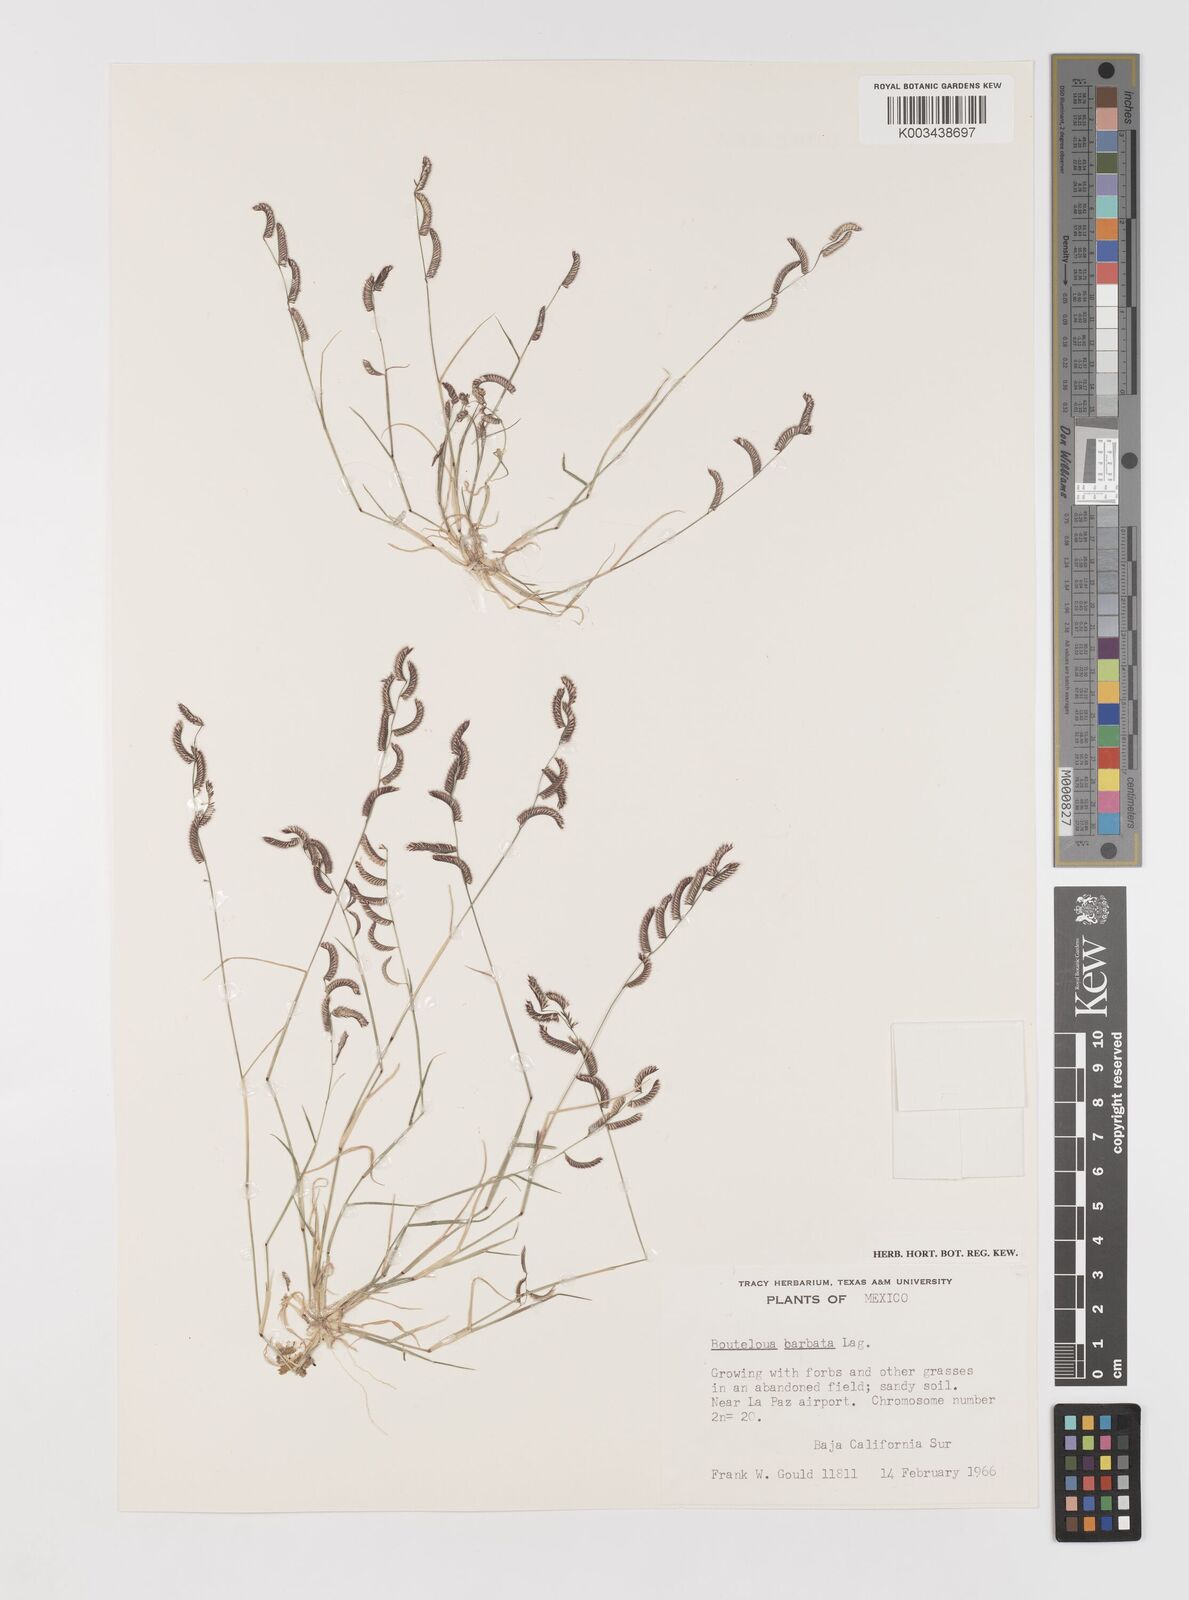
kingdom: Plantae
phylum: Tracheophyta
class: Liliopsida
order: Poales
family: Poaceae
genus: Bouteloua
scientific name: Bouteloua
